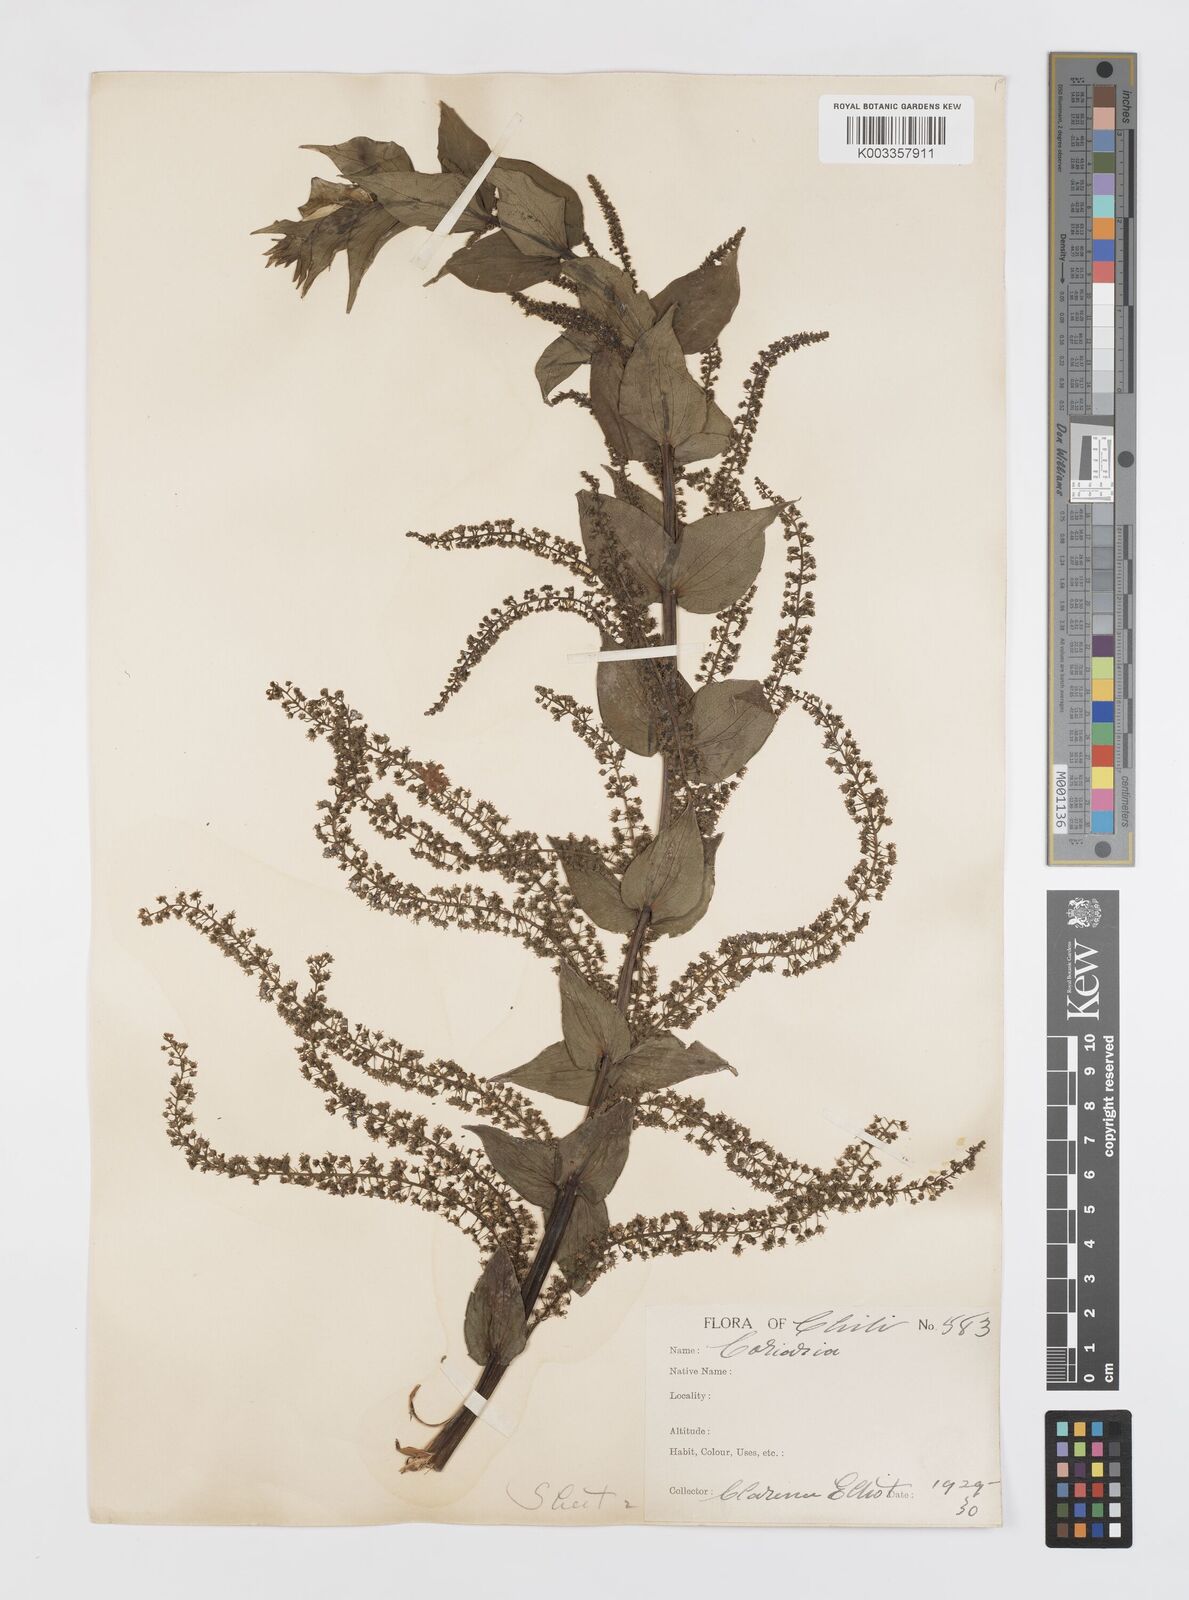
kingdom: Plantae
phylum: Tracheophyta
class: Magnoliopsida
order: Cucurbitales
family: Coriariaceae
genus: Coriaria
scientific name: Coriaria ruscifolia
